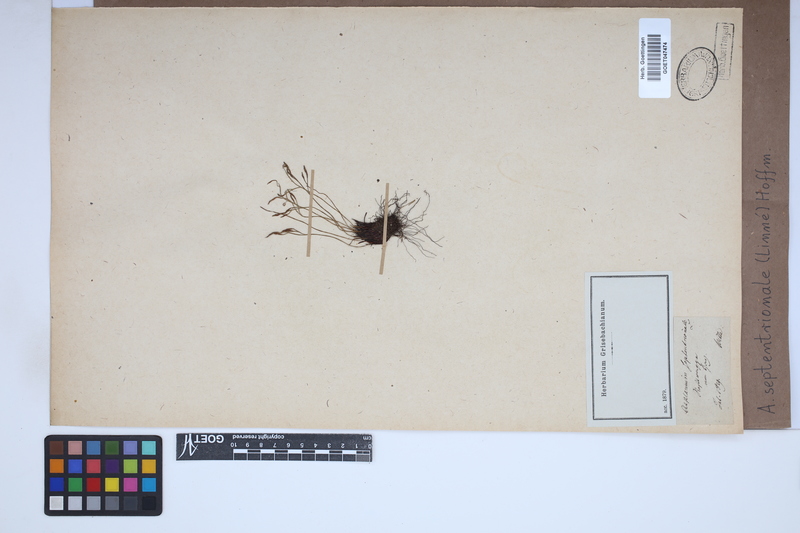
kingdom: Plantae
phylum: Tracheophyta
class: Polypodiopsida
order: Polypodiales
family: Aspleniaceae
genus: Asplenium
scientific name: Asplenium septentrionale
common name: Forked spleenwort
